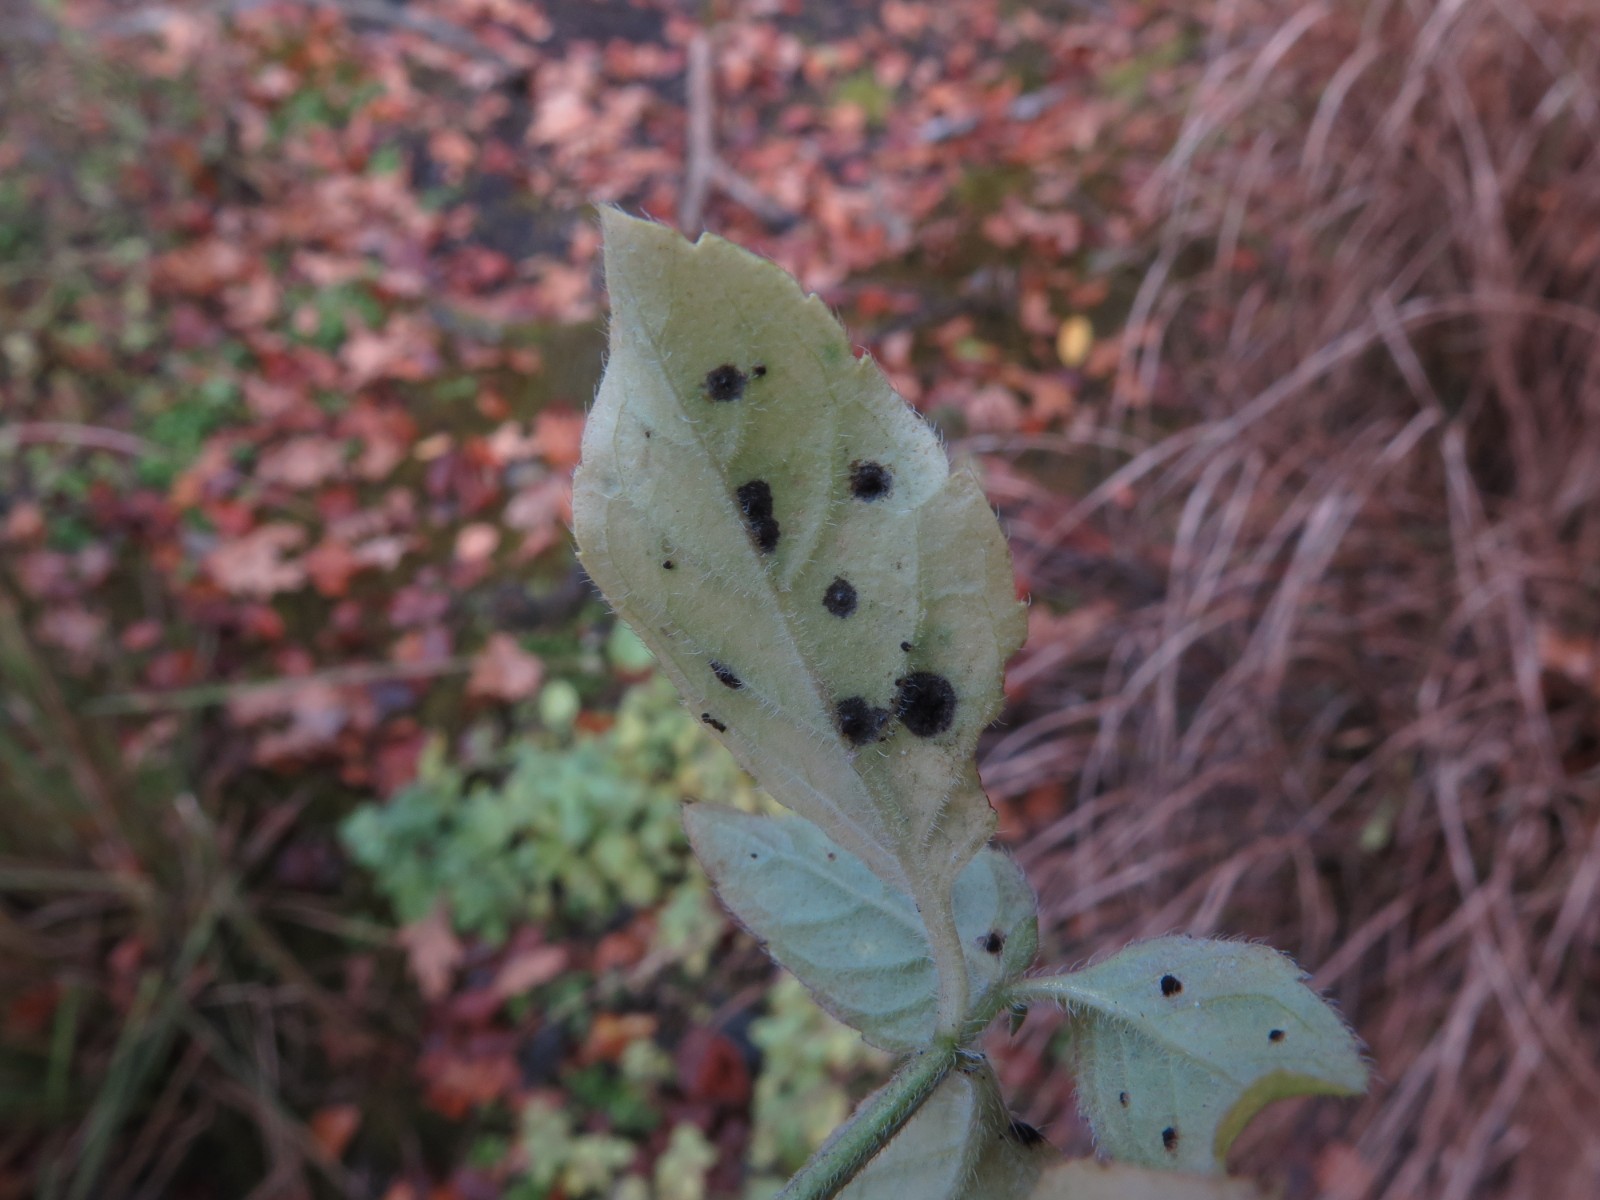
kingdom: Fungi
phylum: Basidiomycota
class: Pucciniomycetes
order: Pucciniales
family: Pucciniaceae
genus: Puccinia
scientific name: Puccinia menthae
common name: Mint rust
